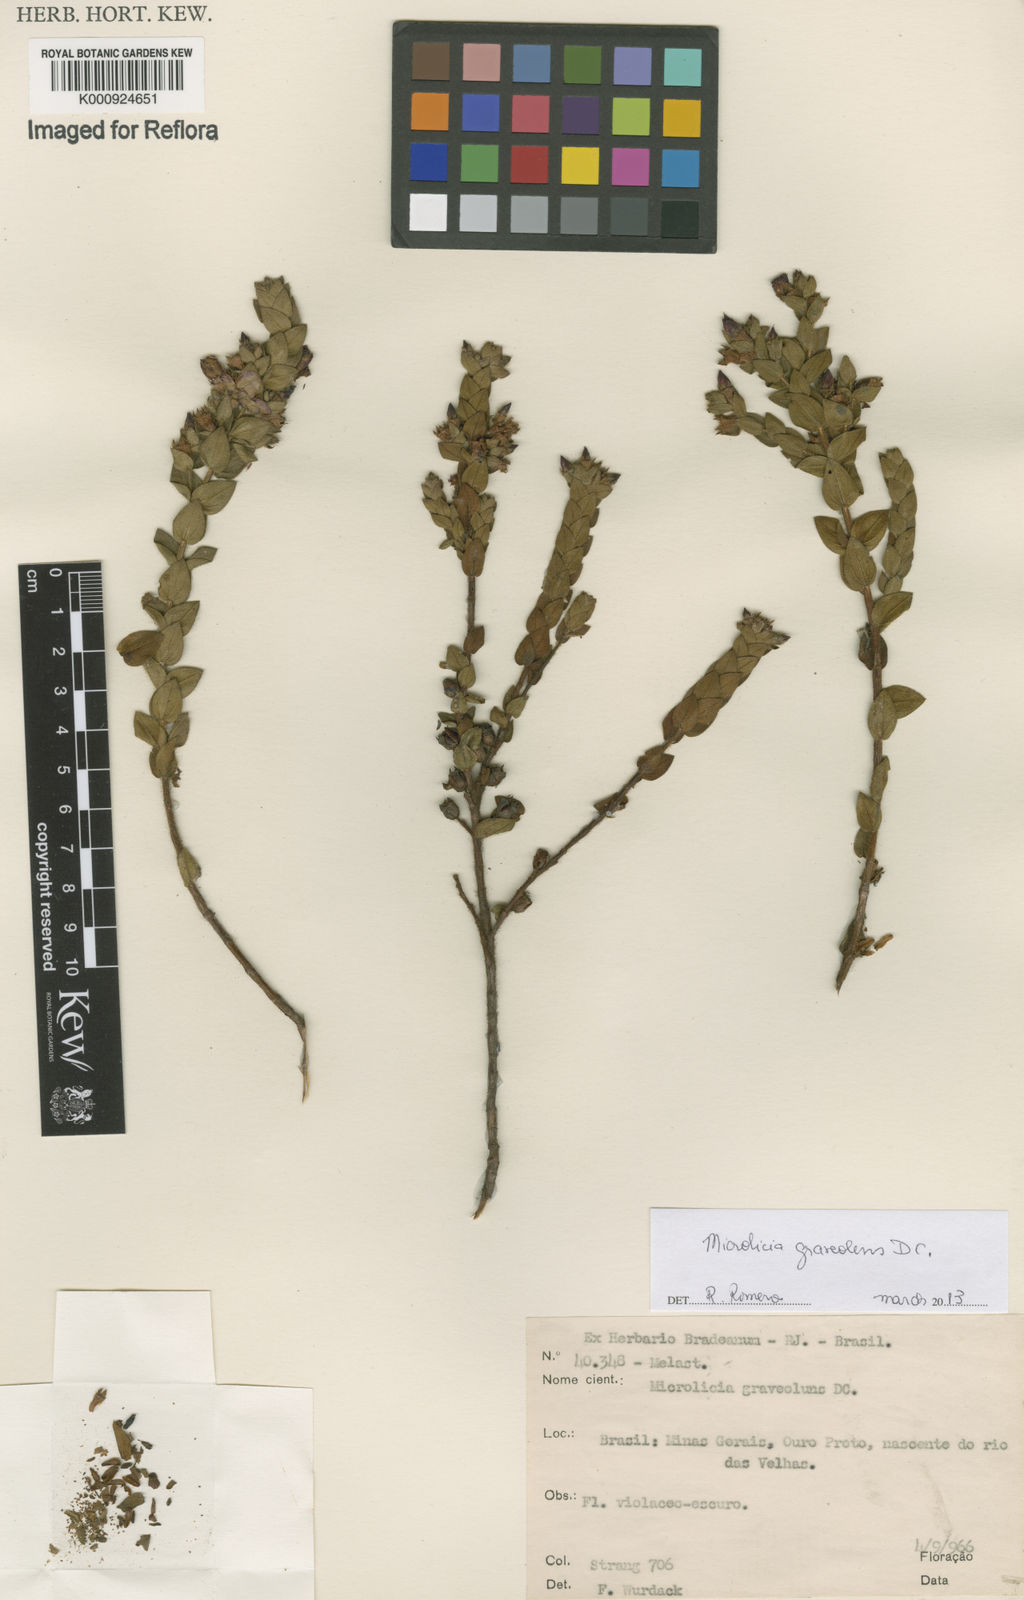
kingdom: Plantae
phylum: Tracheophyta
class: Magnoliopsida
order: Myrtales
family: Melastomataceae
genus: Microlicia
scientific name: Microlicia graveolens
